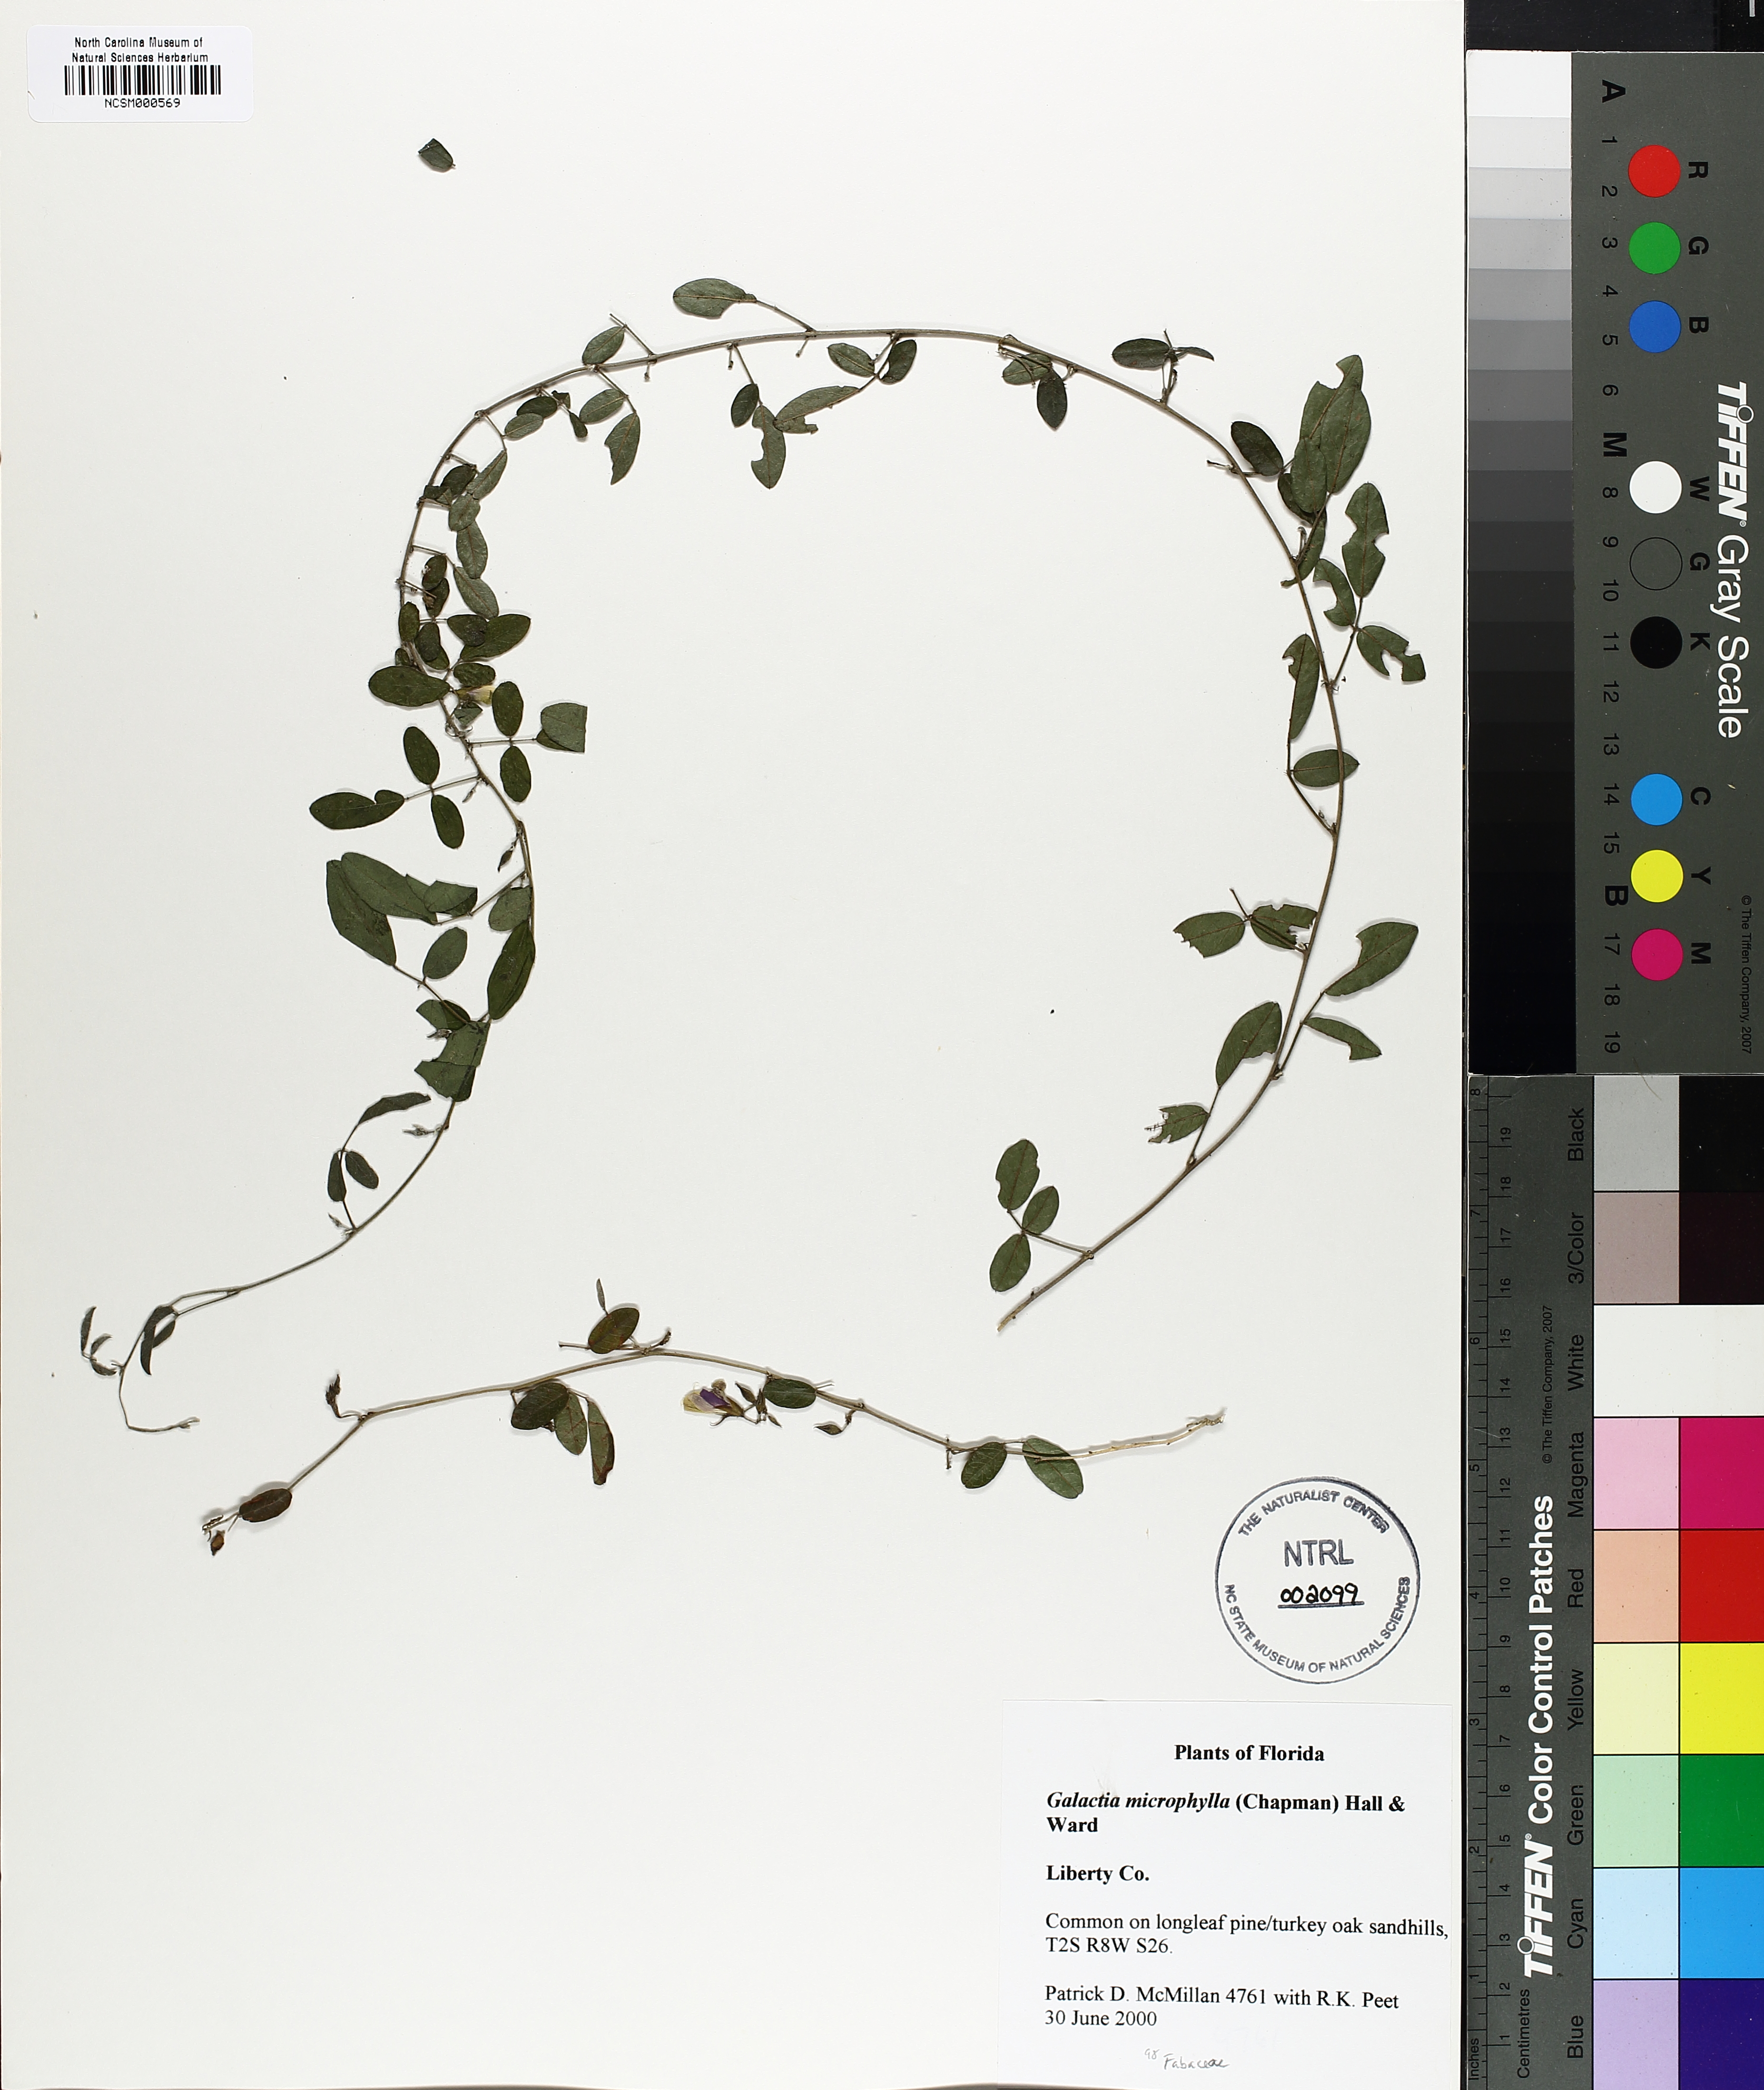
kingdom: Plantae
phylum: Tracheophyta
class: Magnoliopsida
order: Fabales
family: Fabaceae
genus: Galactia
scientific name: Galactia microphylla
